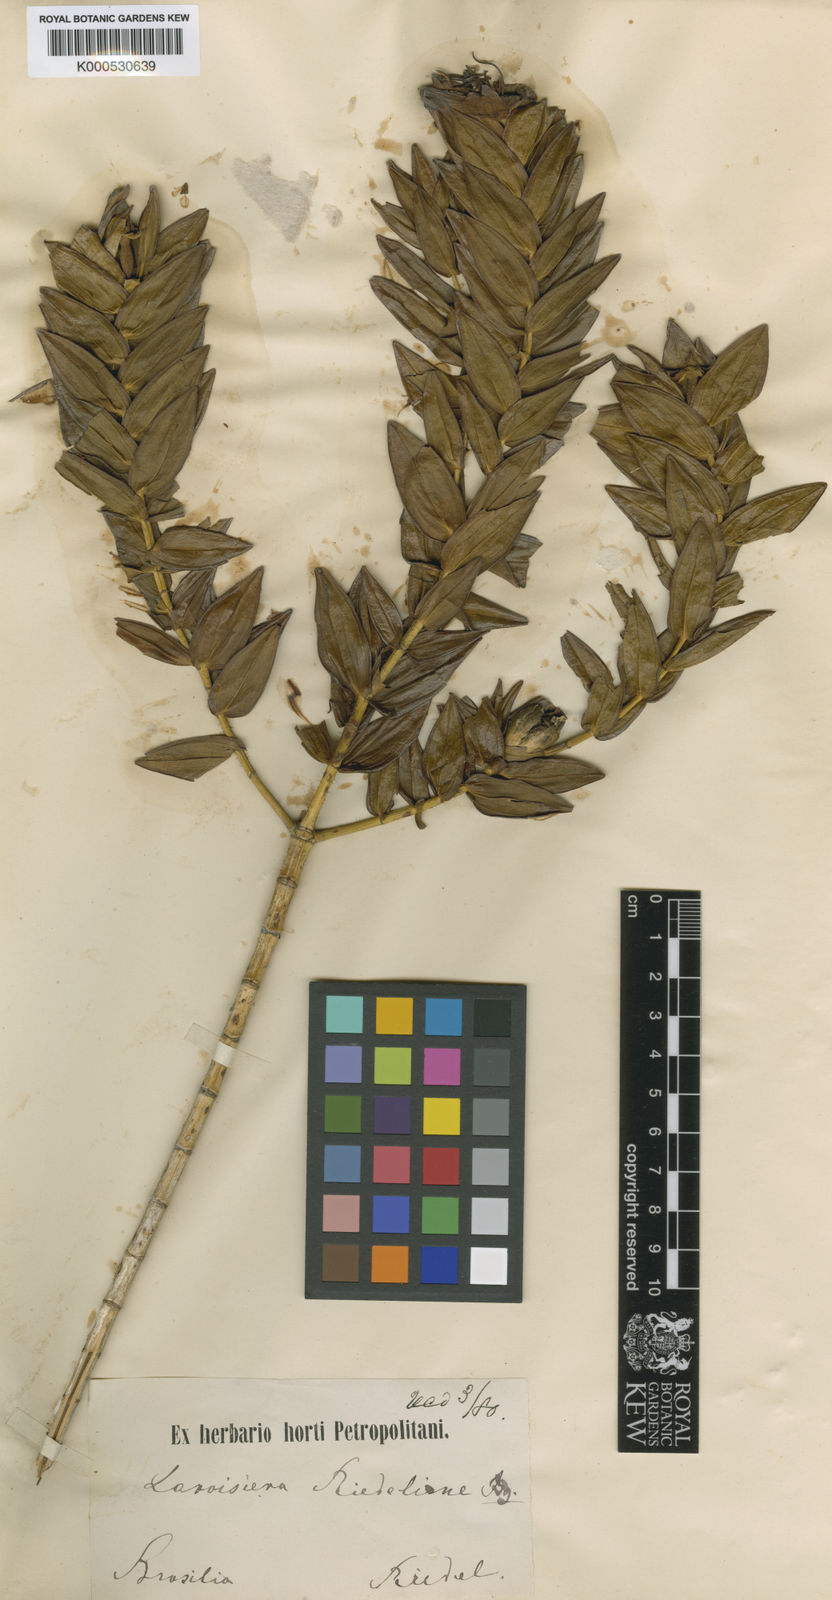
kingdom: Plantae
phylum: Tracheophyta
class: Magnoliopsida
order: Myrtales
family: Melastomataceae
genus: Microlicia
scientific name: Microlicia macrantha
